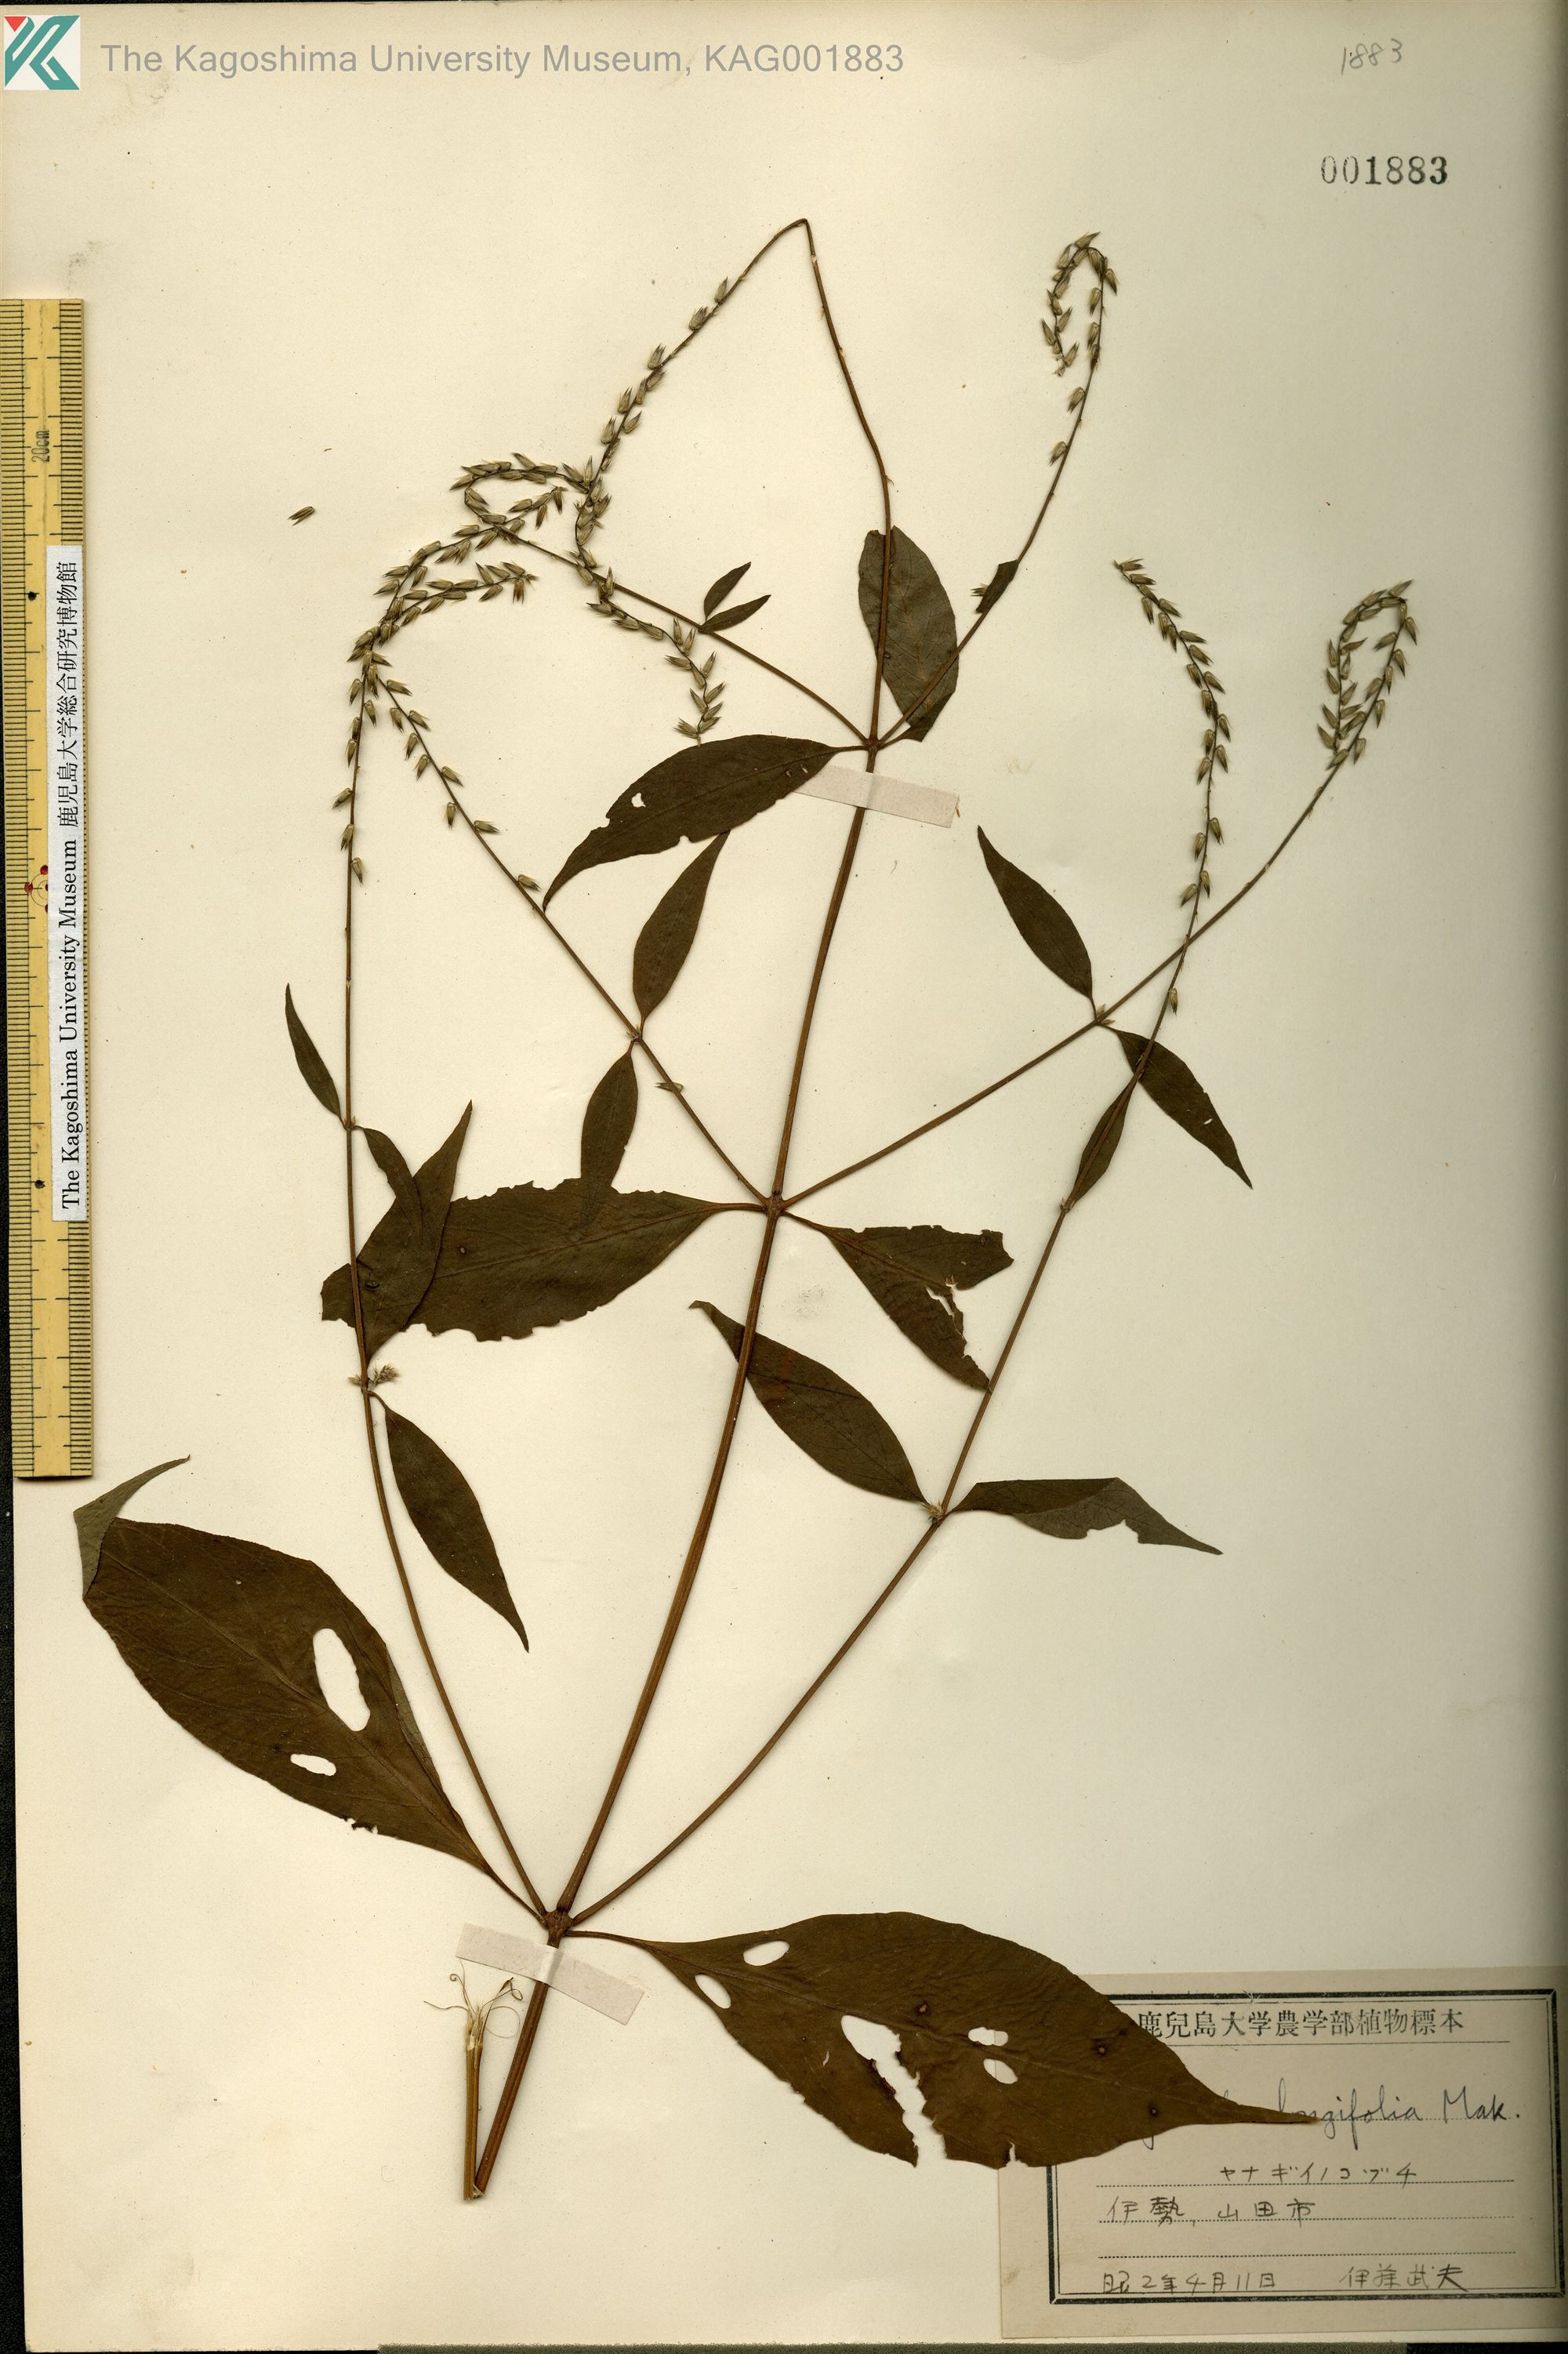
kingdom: Plantae
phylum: Tracheophyta
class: Magnoliopsida
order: Caryophyllales
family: Amaranthaceae
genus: Achyranthes
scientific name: Achyranthes bidentata
